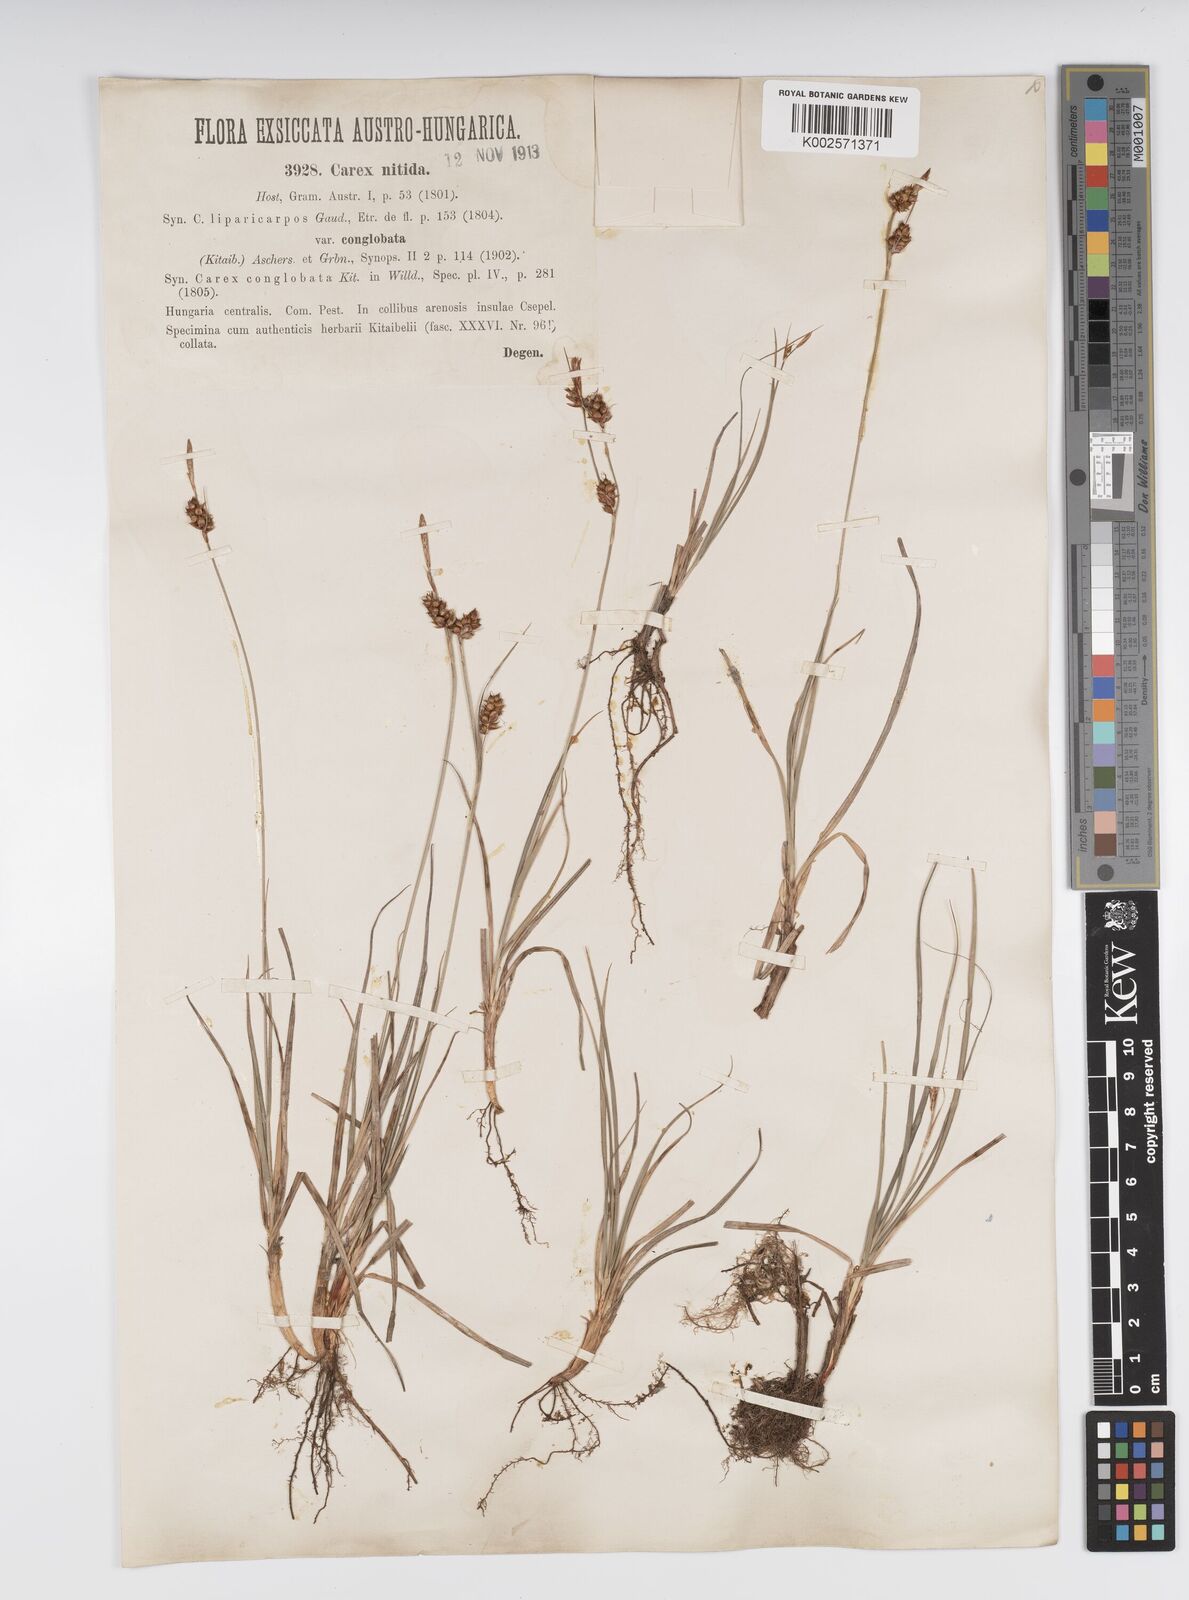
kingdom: Plantae
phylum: Tracheophyta
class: Liliopsida
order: Poales
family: Cyperaceae
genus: Carex
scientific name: Carex liparocarpos
